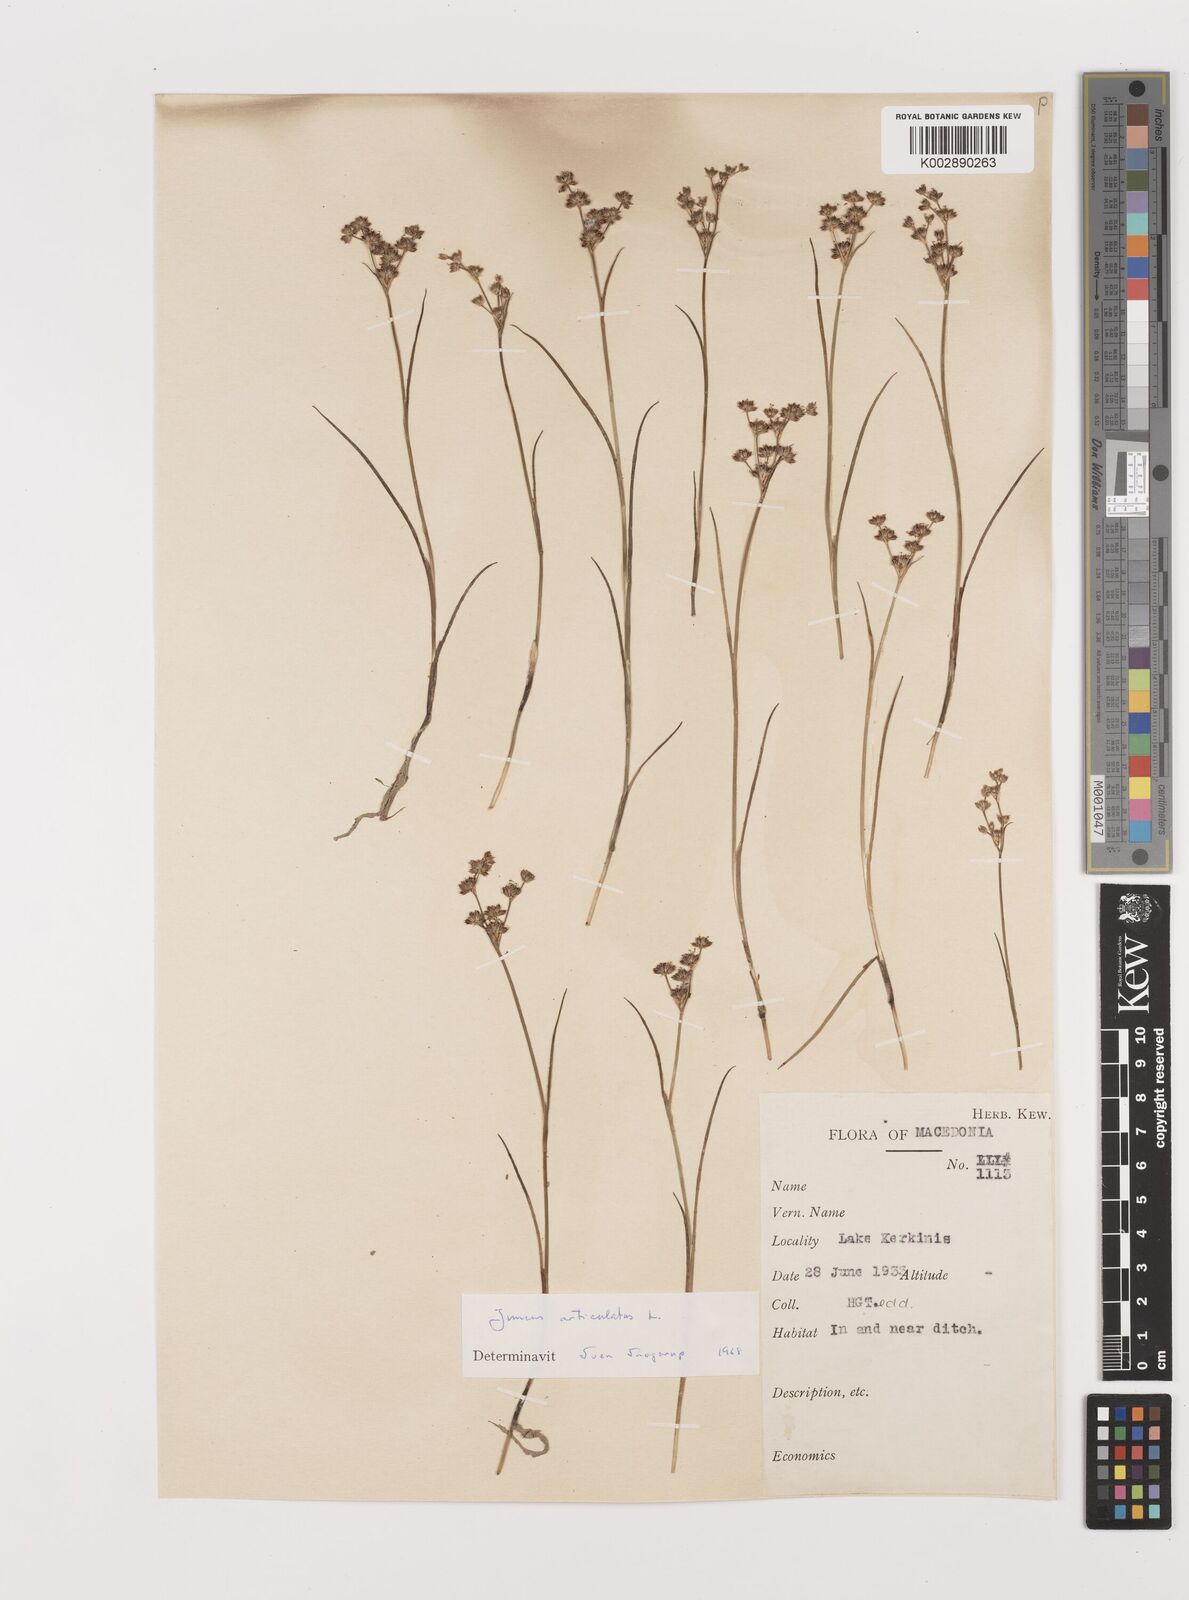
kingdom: Plantae
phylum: Tracheophyta
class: Liliopsida
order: Poales
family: Juncaceae
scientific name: Juncaceae
